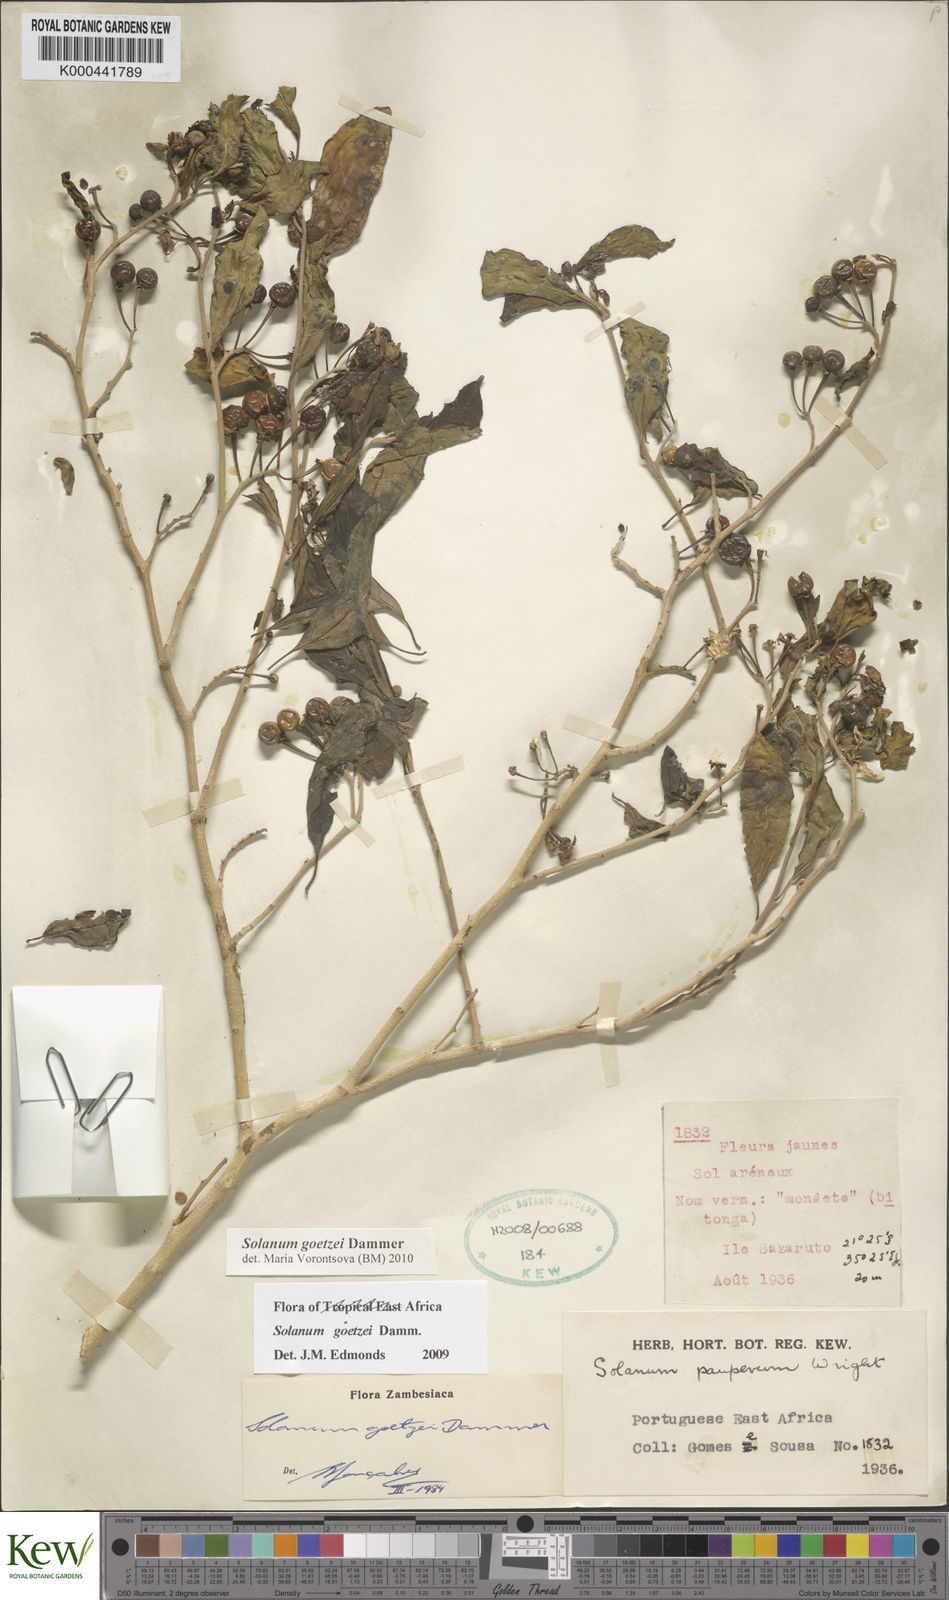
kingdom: Plantae
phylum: Tracheophyta
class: Magnoliopsida
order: Solanales
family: Solanaceae
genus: Solanum
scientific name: Solanum goetzei
